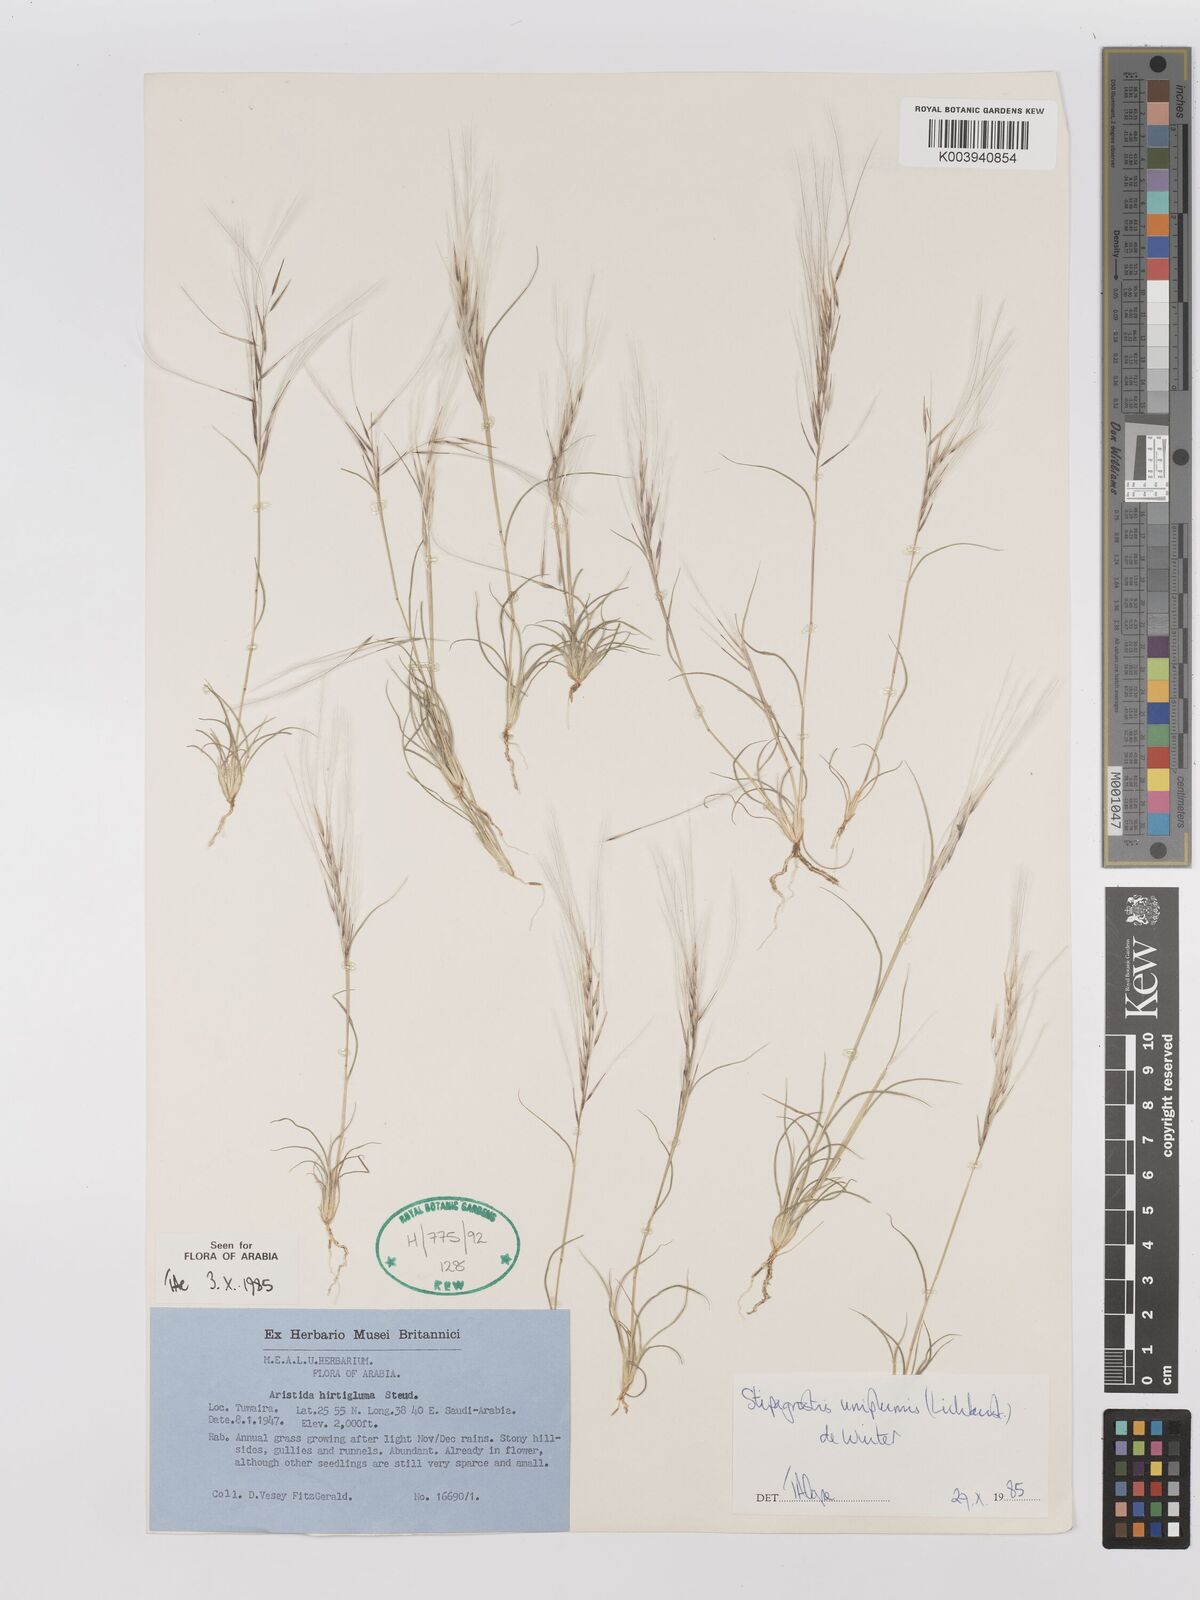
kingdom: Plantae
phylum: Tracheophyta
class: Liliopsida
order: Poales
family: Poaceae
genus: Stipagrostis
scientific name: Stipagrostis uniplumis
